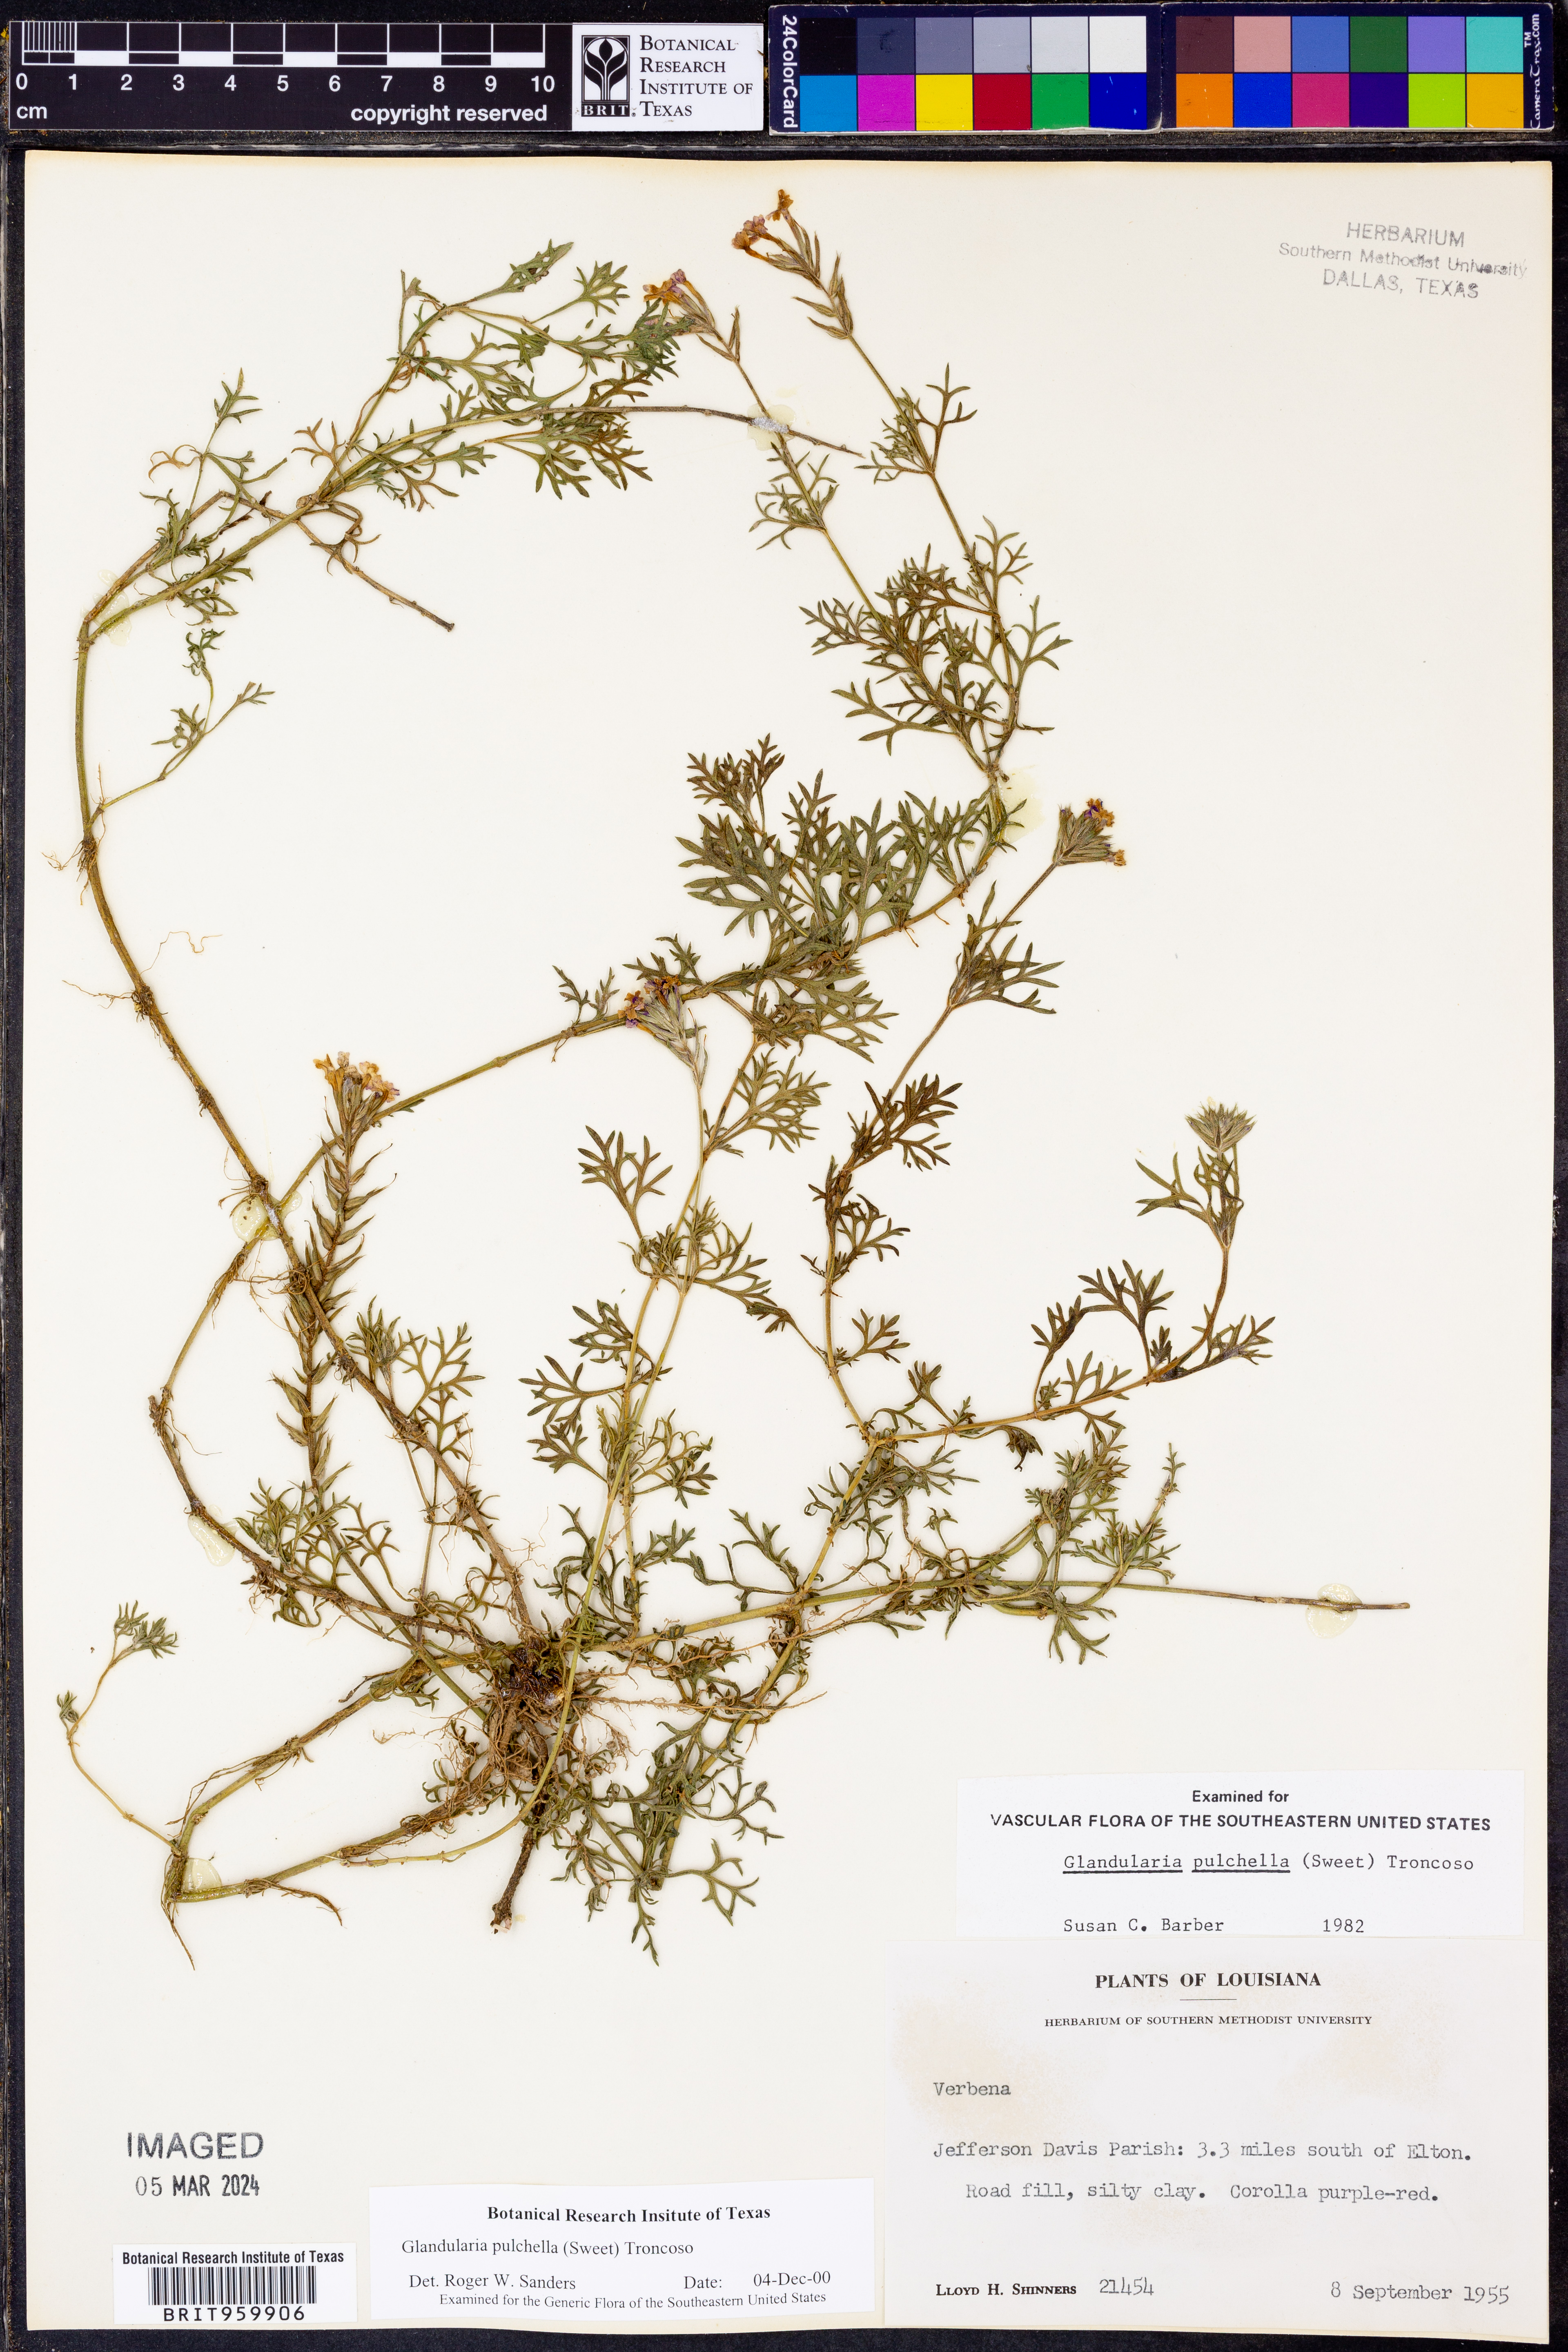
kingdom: Plantae
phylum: Tracheophyta
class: Magnoliopsida
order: Lamiales
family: Verbenaceae
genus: Verbena
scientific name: Verbena tenera
